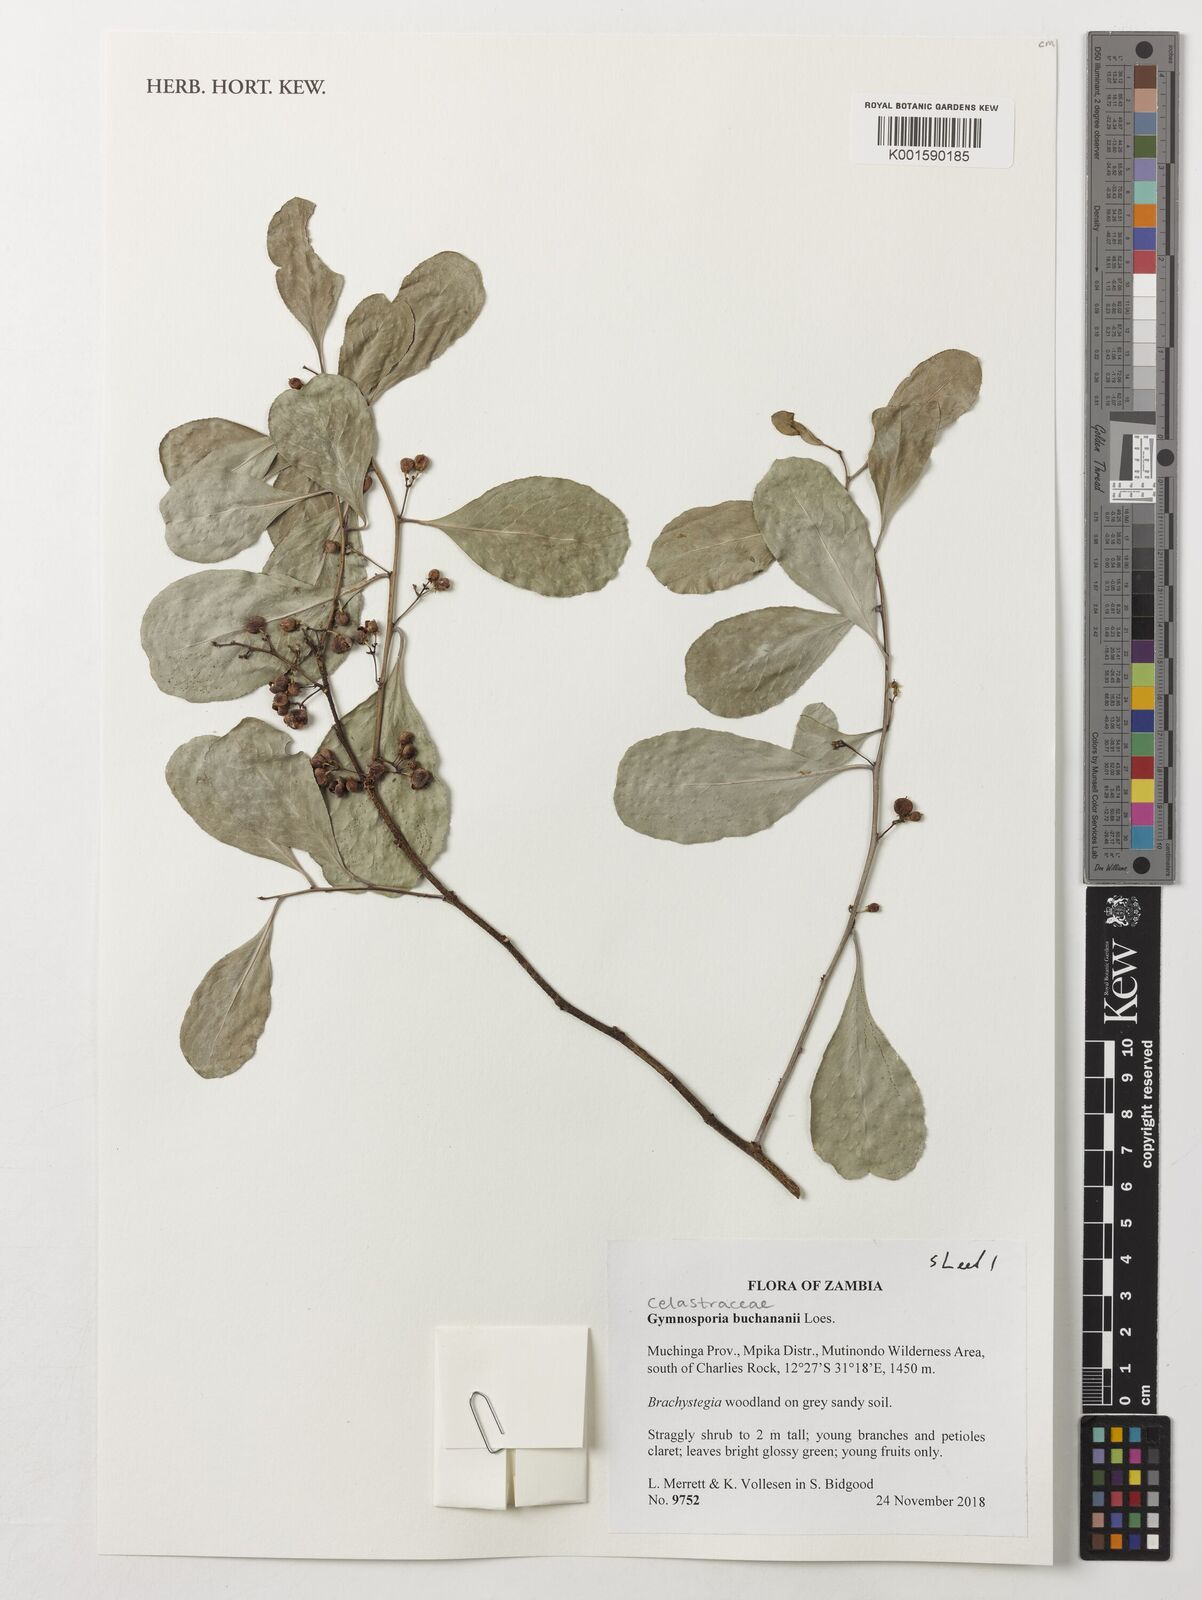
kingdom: Plantae
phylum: Tracheophyta
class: Magnoliopsida
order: Celastrales
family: Celastraceae
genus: Gymnosporia
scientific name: Gymnosporia buchananii
